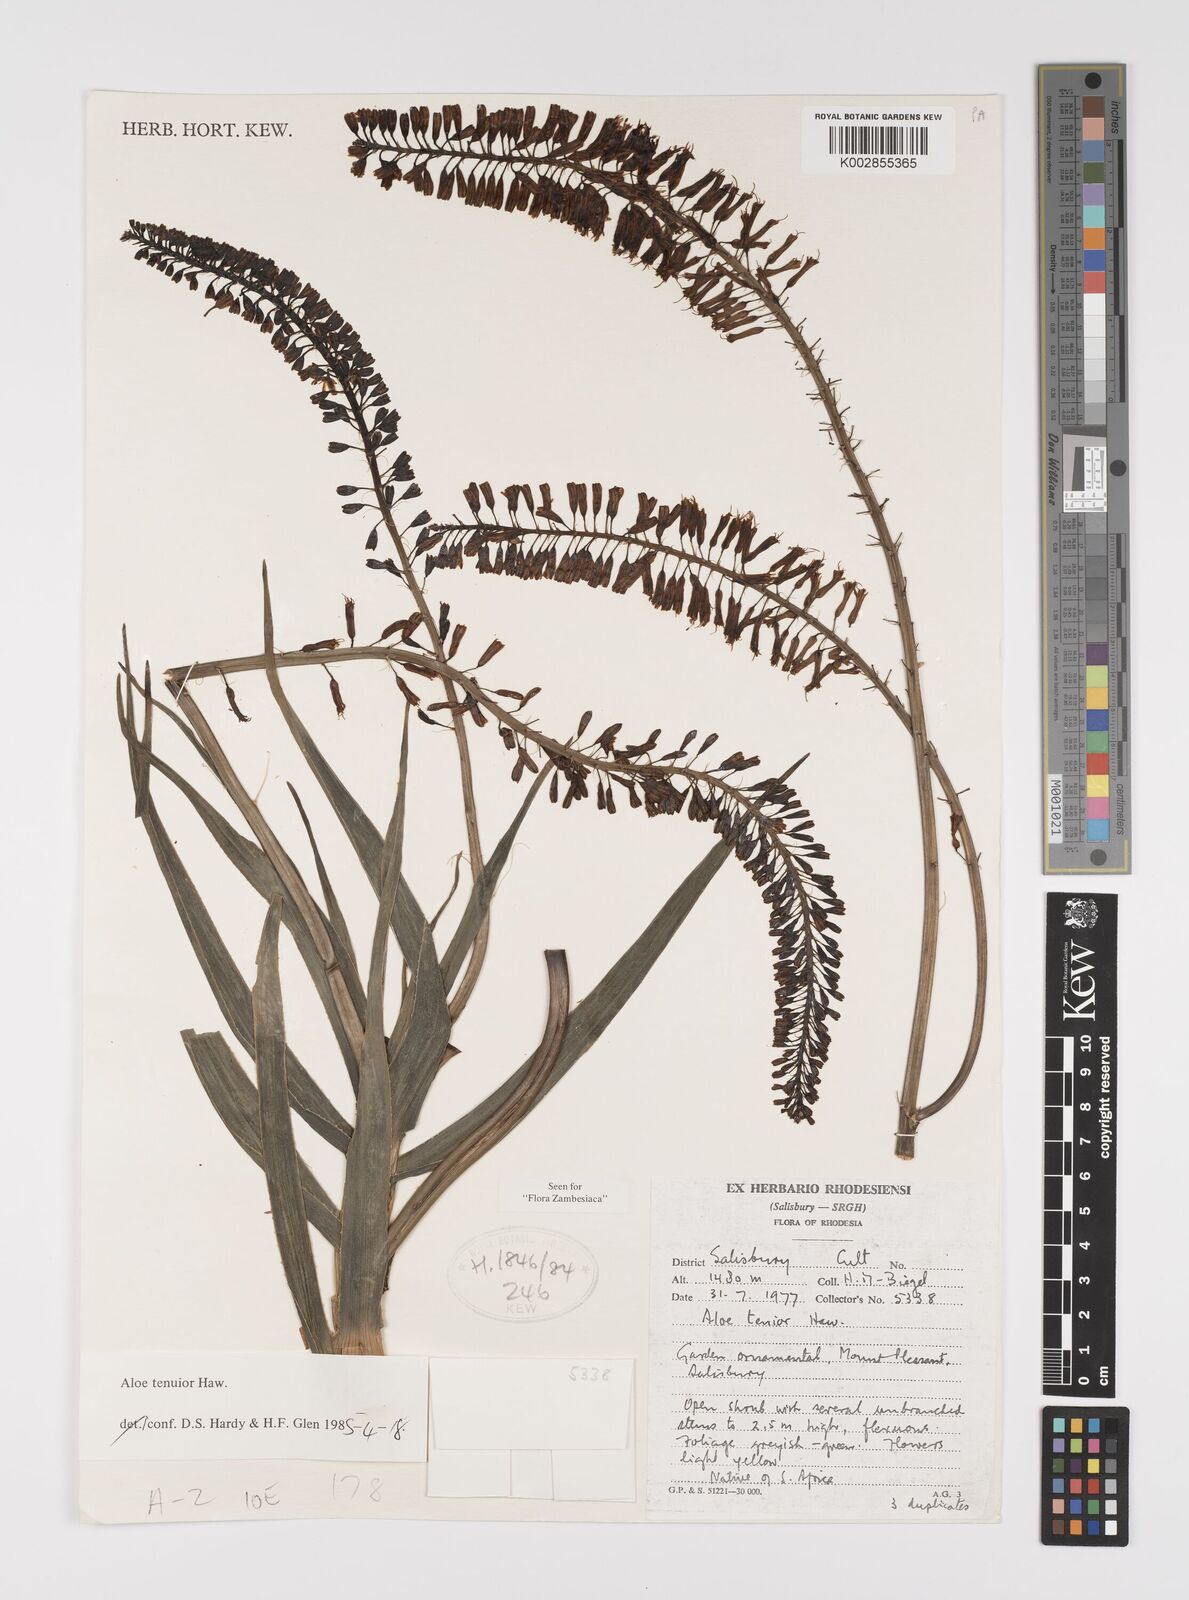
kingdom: Plantae
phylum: Tracheophyta
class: Liliopsida
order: Asparagales
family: Asphodelaceae
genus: Aloiampelos
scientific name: Aloiampelos tenuior
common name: Fence aloe
